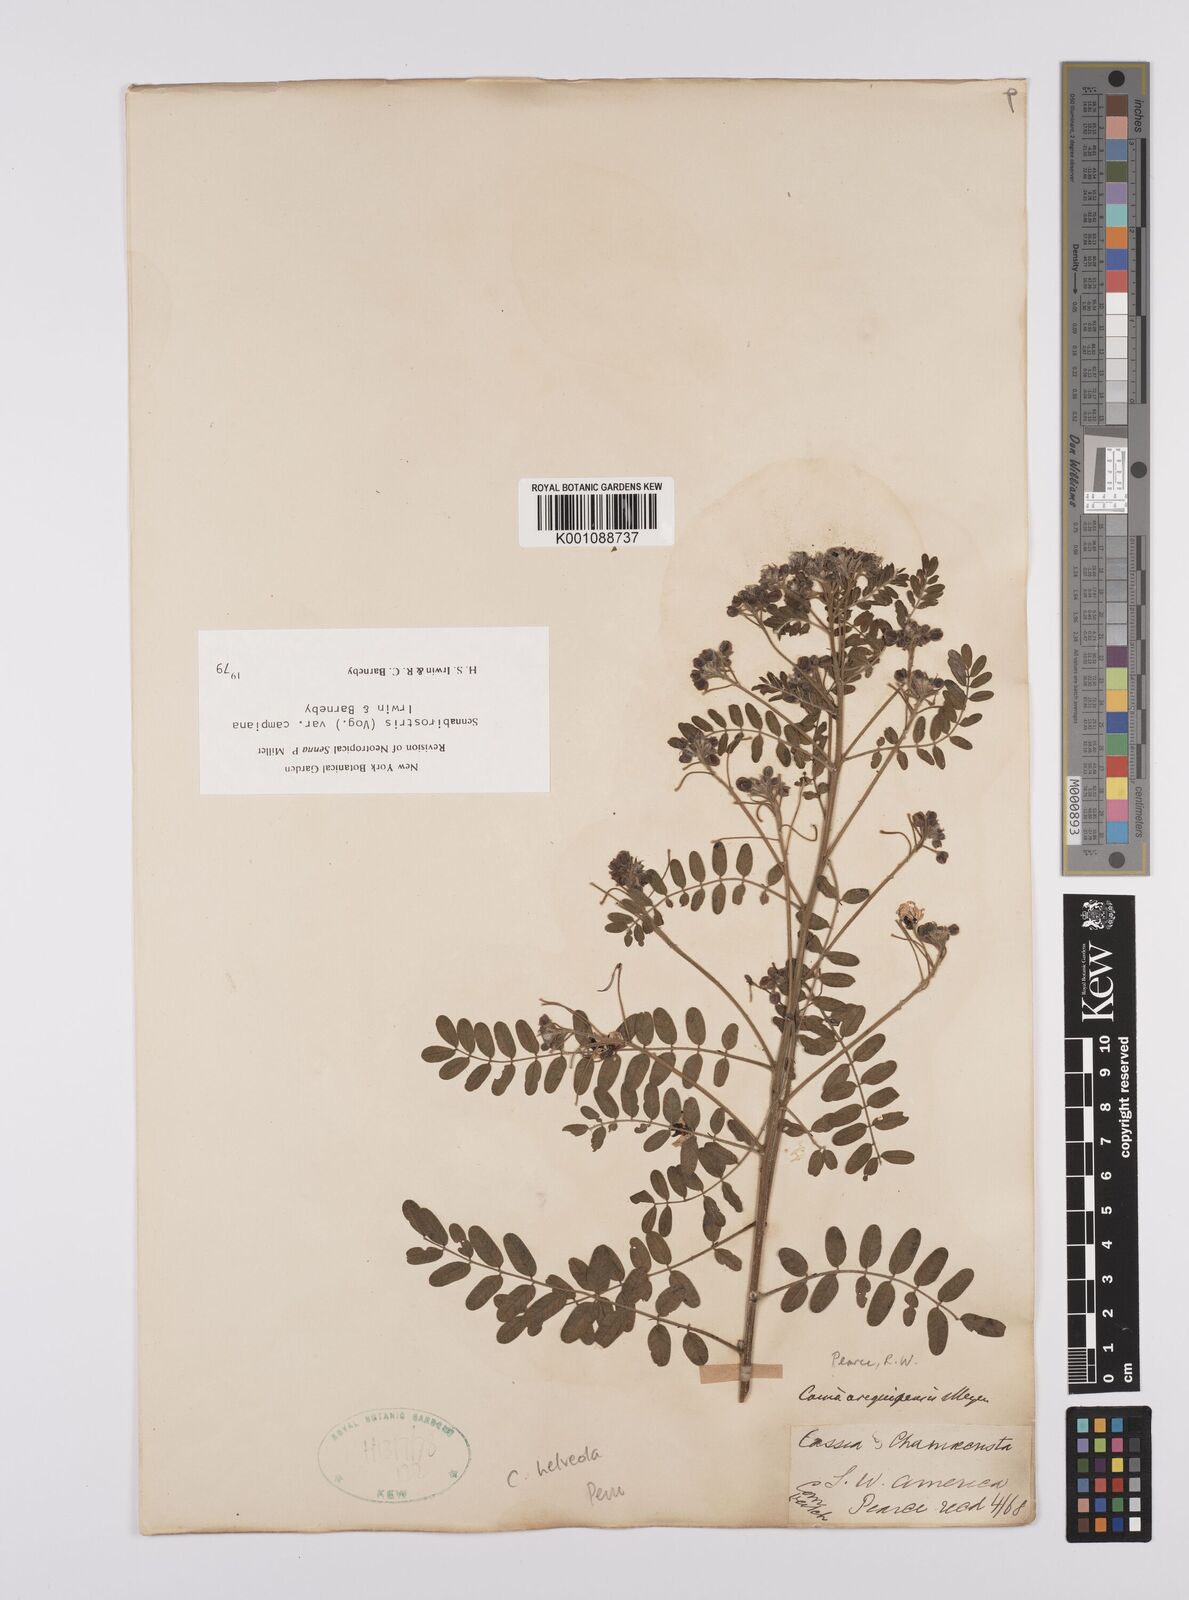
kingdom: Plantae
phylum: Tracheophyta
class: Magnoliopsida
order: Fabales
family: Fabaceae
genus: Senna
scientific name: Senna birostris
